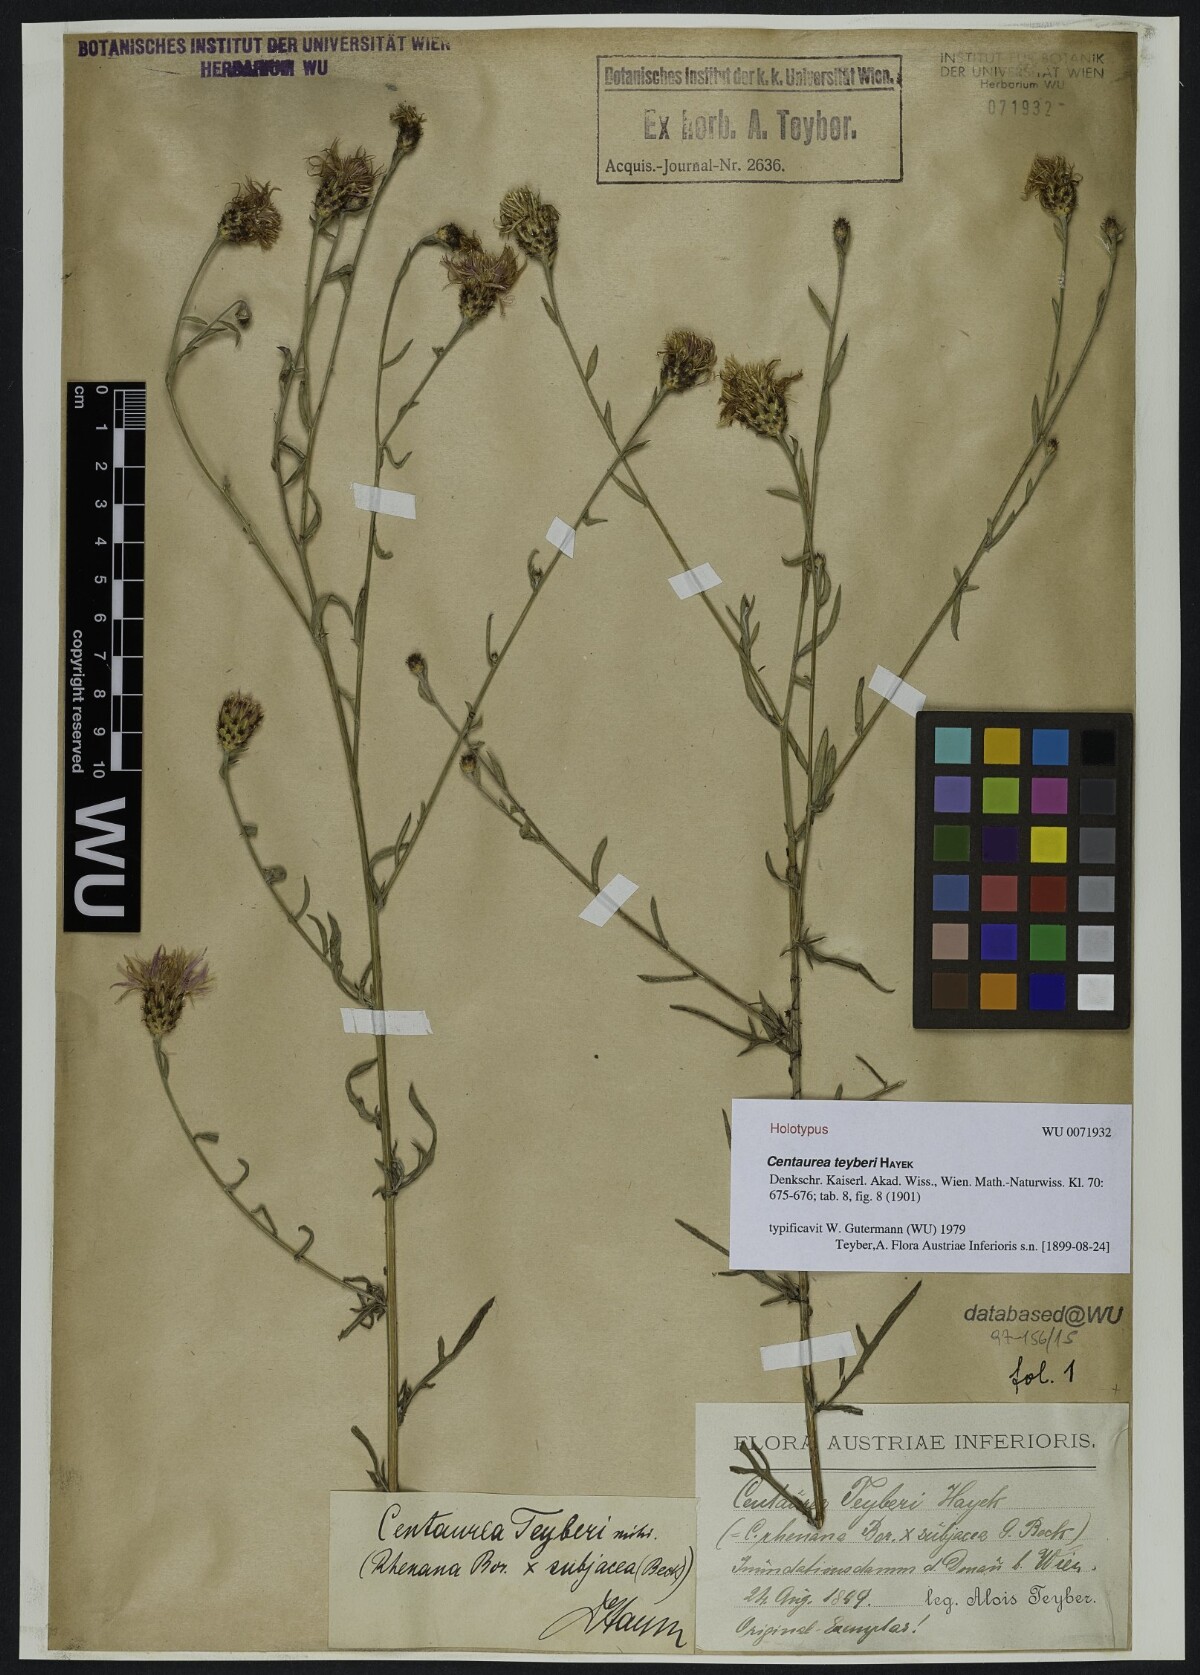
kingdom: Plantae
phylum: Tracheophyta
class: Magnoliopsida
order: Asterales
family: Asteraceae
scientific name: Asteraceae
